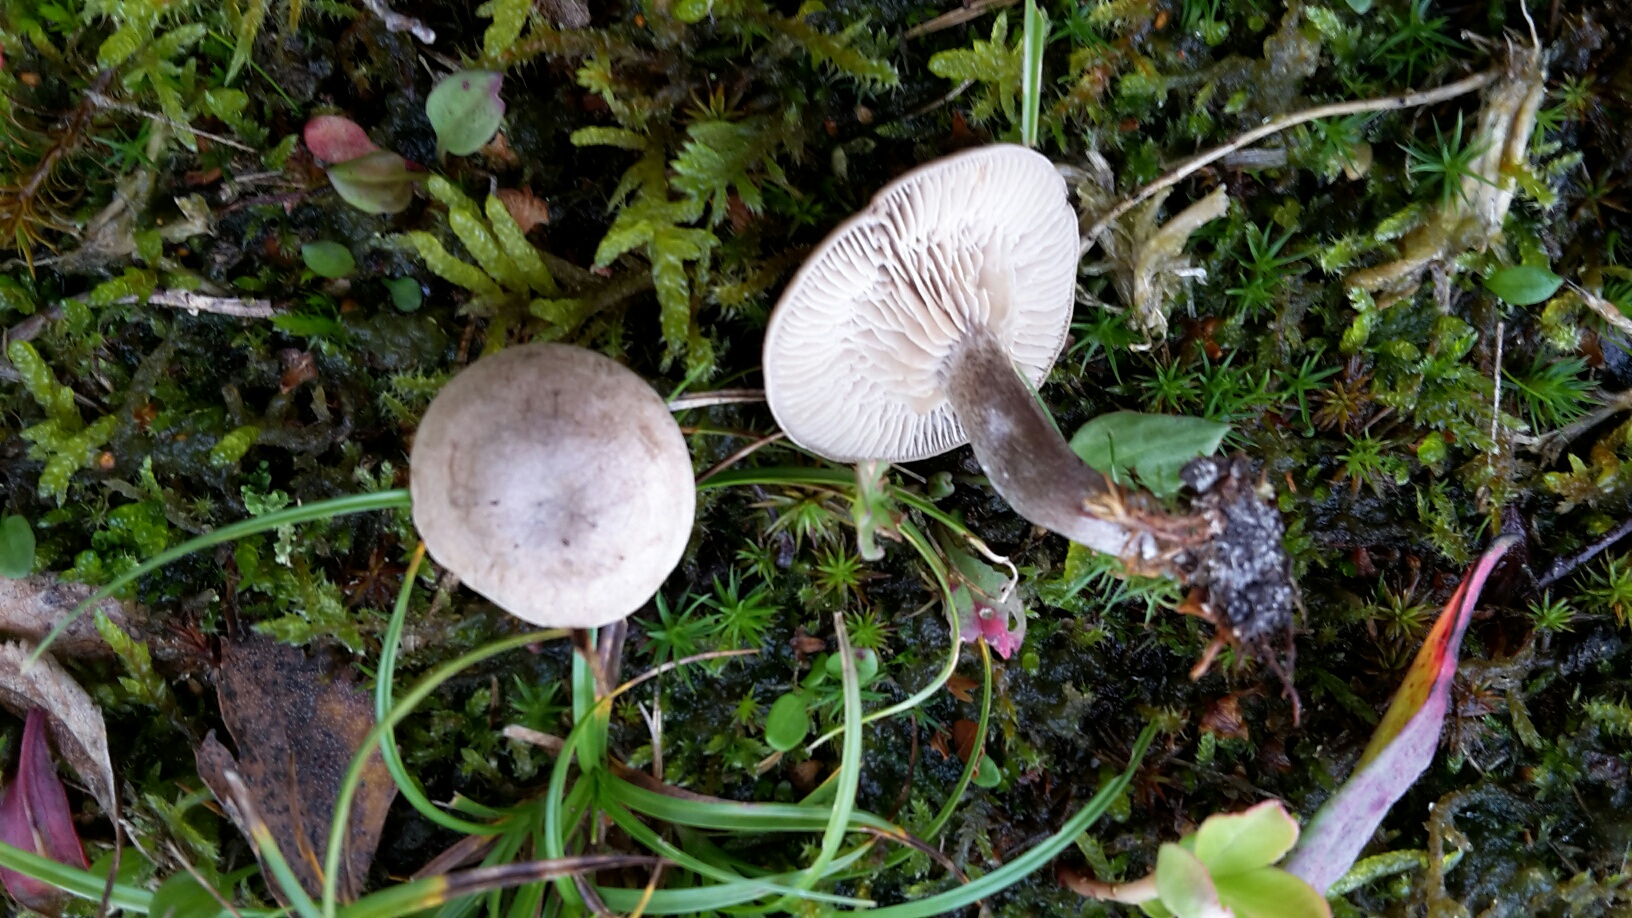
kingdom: Fungi
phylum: Basidiomycota
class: Agaricomycetes
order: Agaricales
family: Entolomataceae
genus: Rhodocybe
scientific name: Rhodocybe
